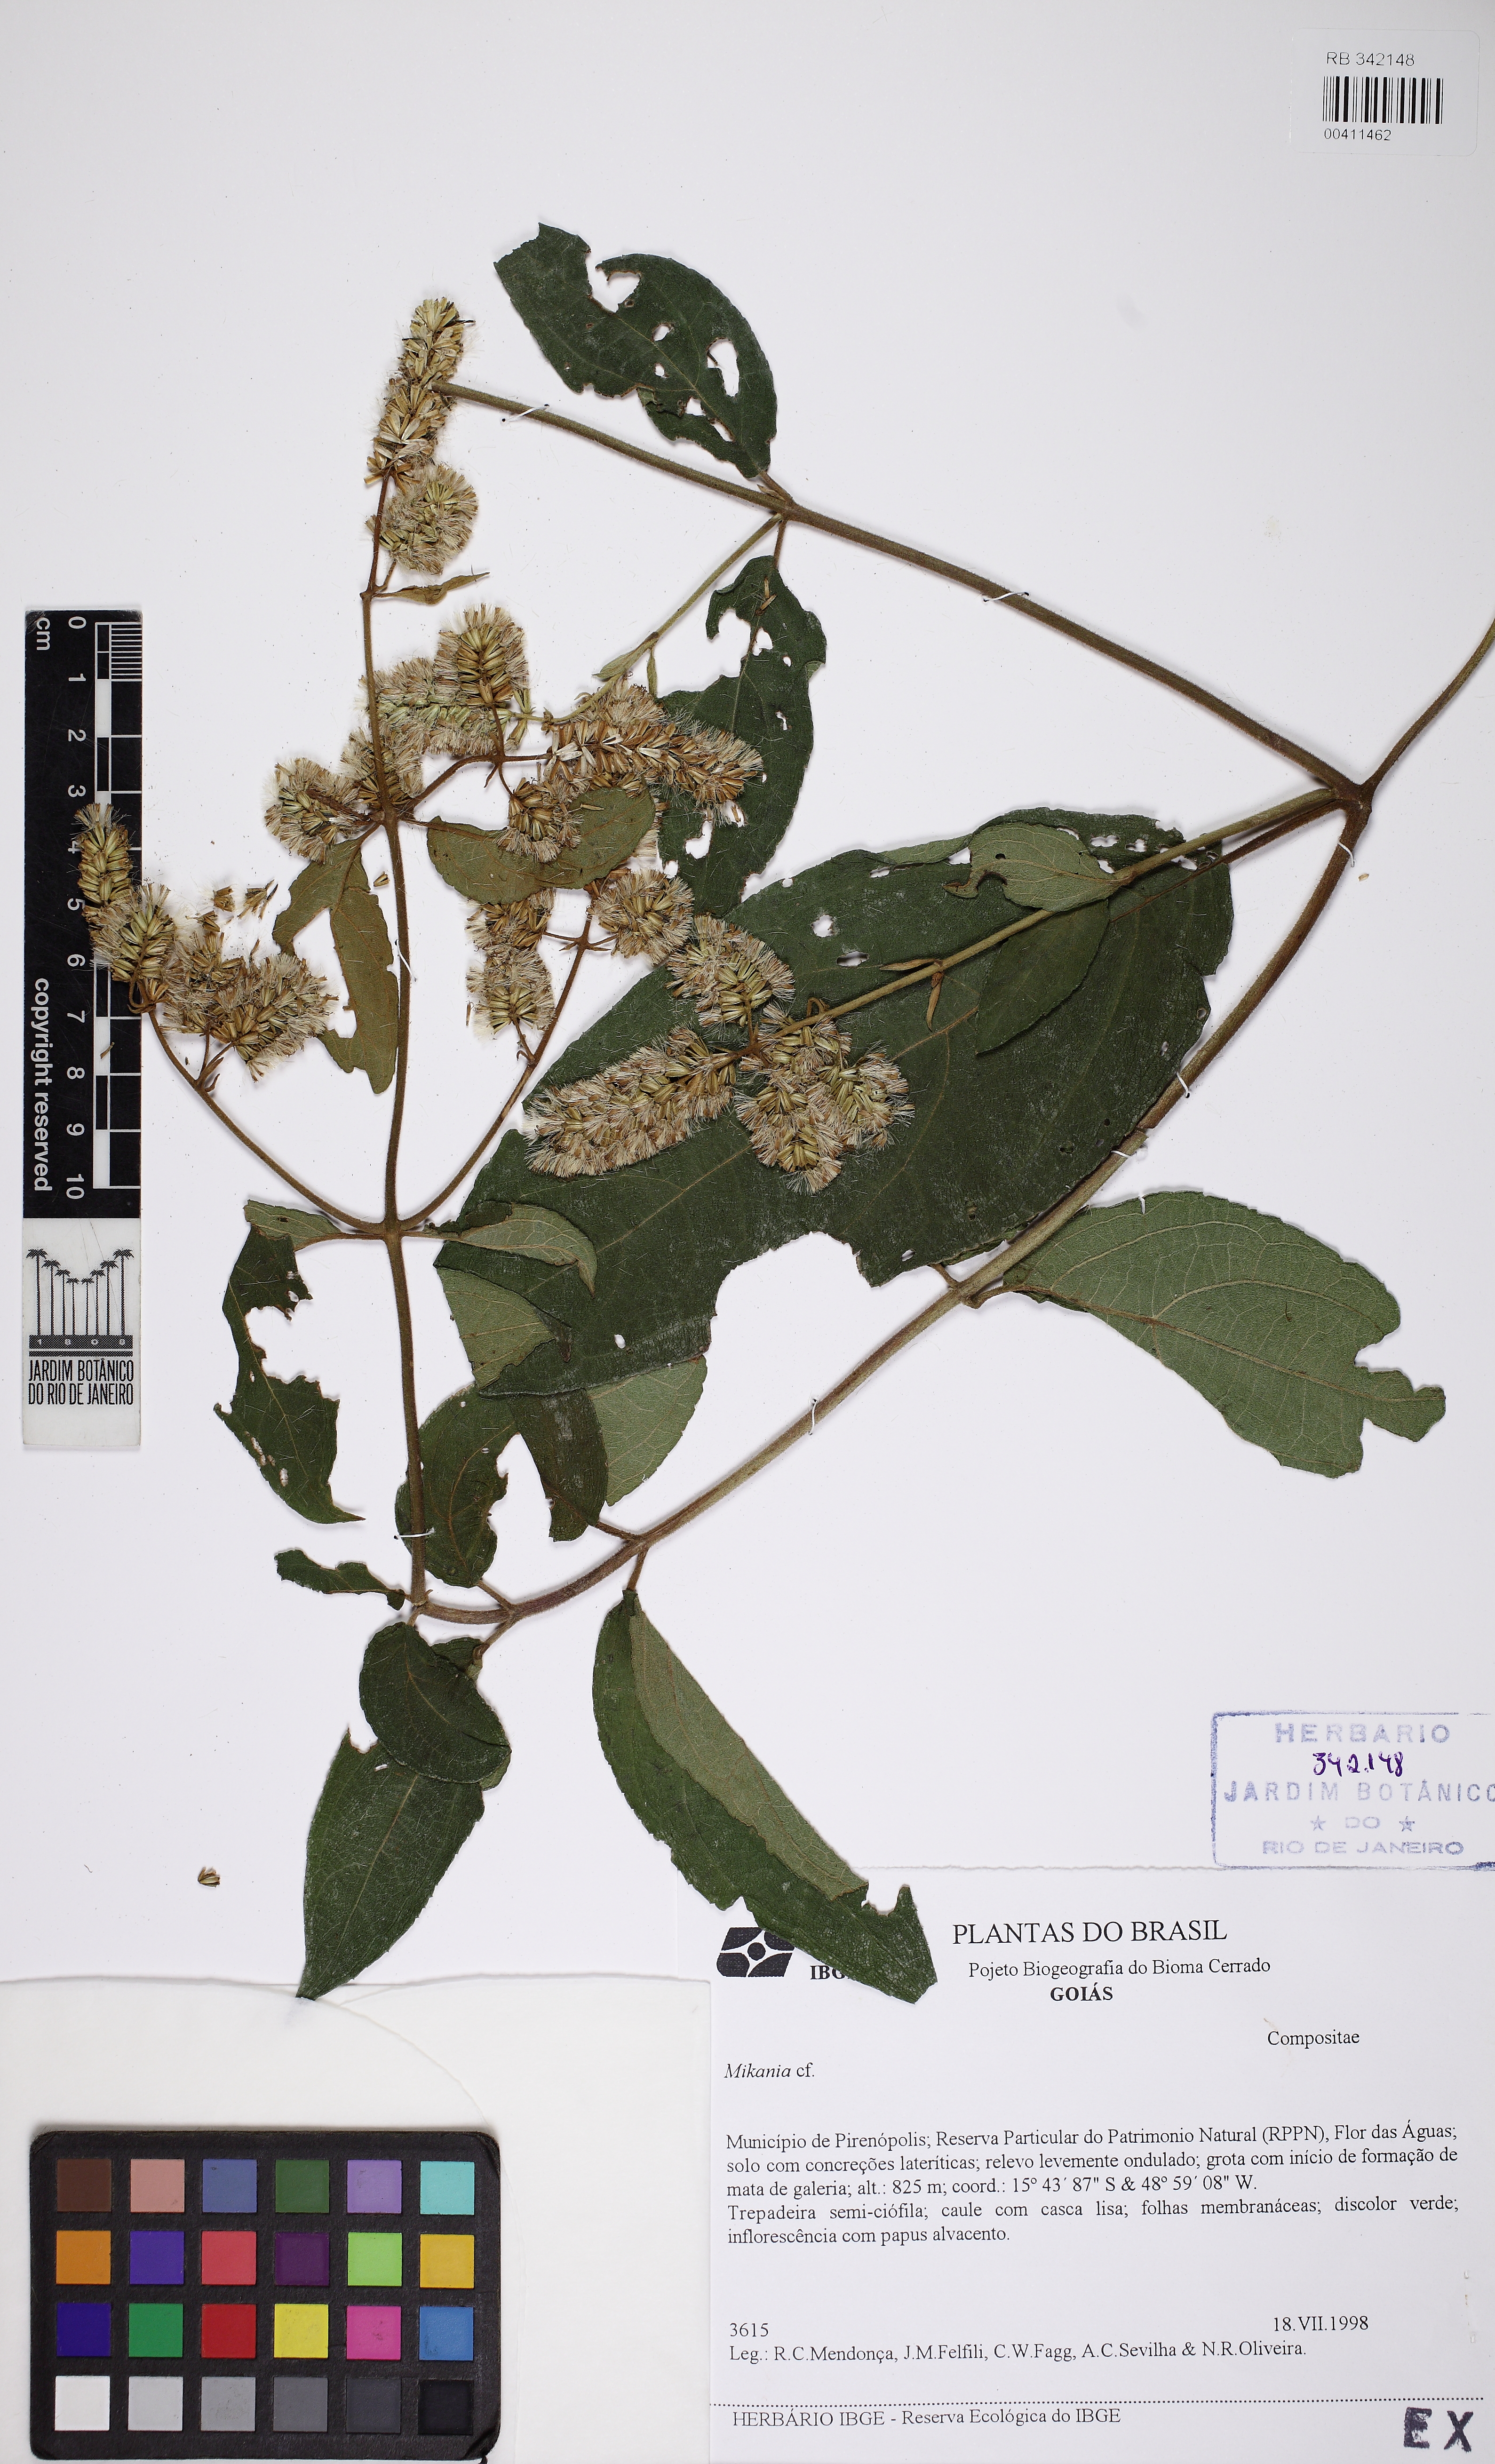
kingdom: Plantae
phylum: Tracheophyta
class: Magnoliopsida
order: Asterales
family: Asteraceae
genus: Mikania
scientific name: Mikania
